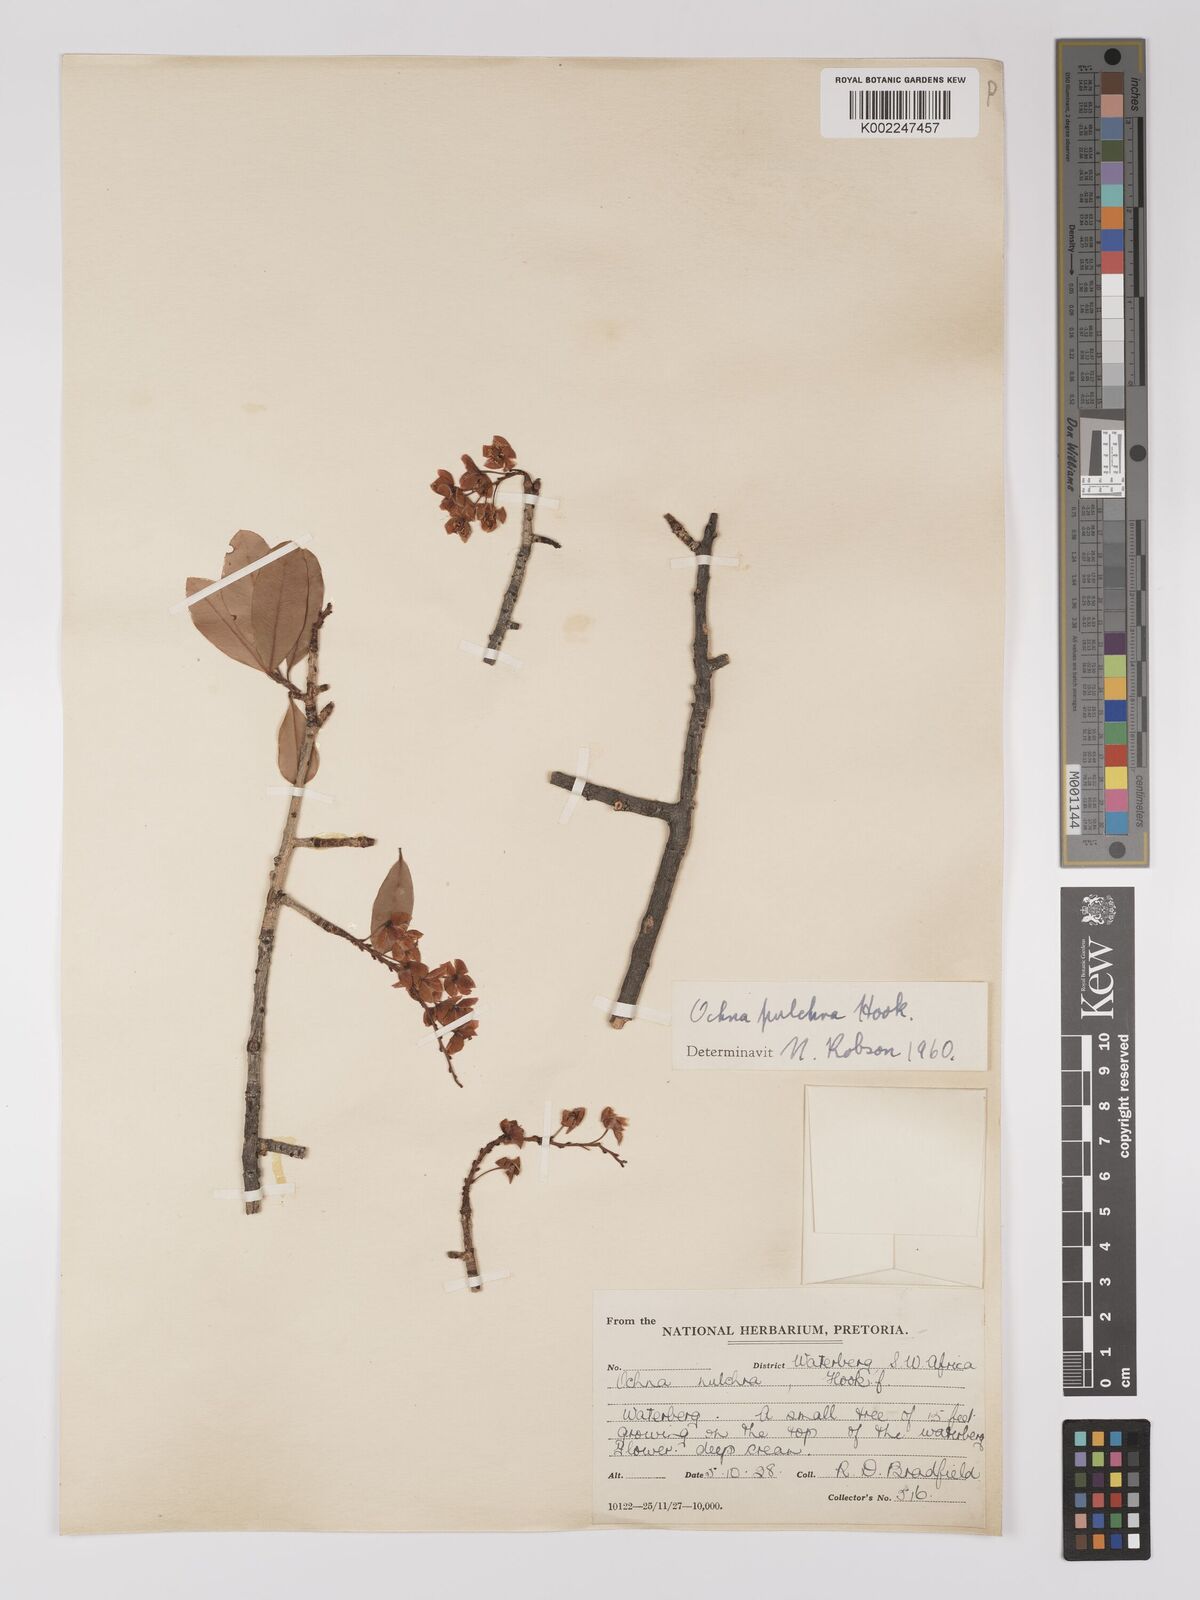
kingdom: Plantae
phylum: Tracheophyta
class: Magnoliopsida
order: Malpighiales
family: Ochnaceae
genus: Ochna
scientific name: Ochna pulchra
